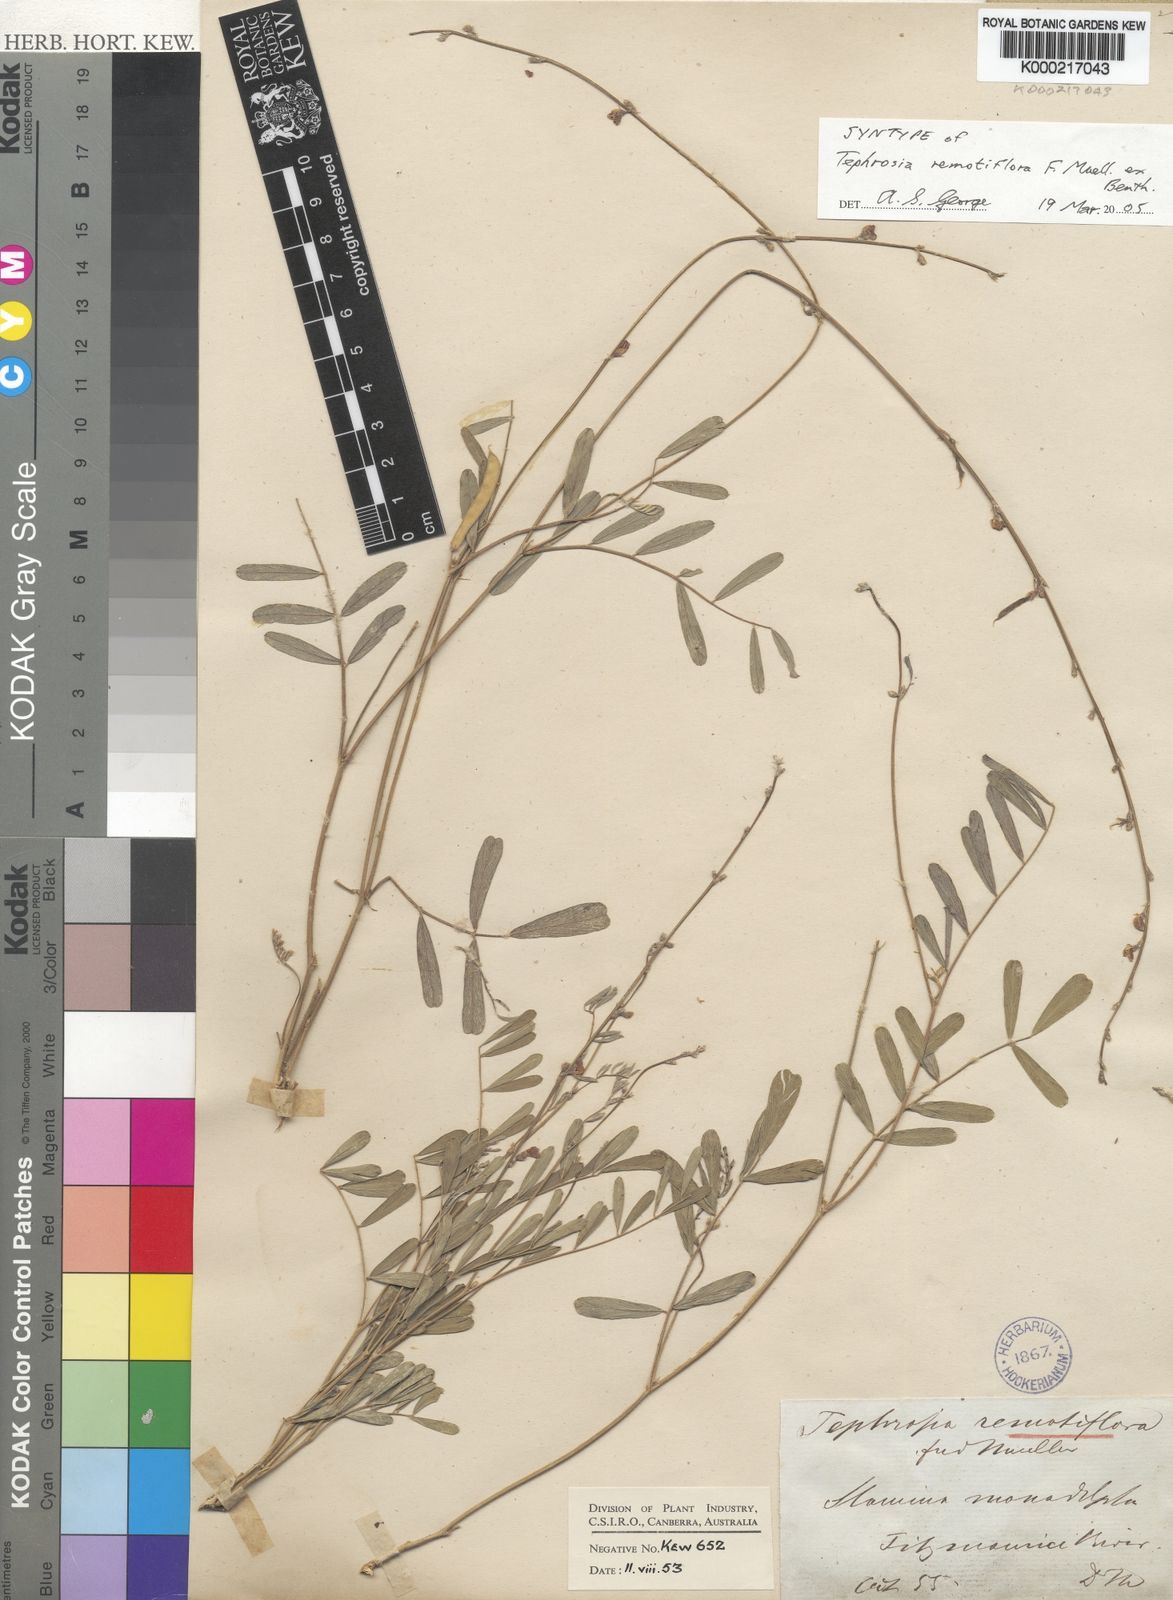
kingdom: Plantae
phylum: Tracheophyta
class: Magnoliopsida
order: Fabales
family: Fabaceae
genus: Tephrosia
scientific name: Tephrosia remotiflora
